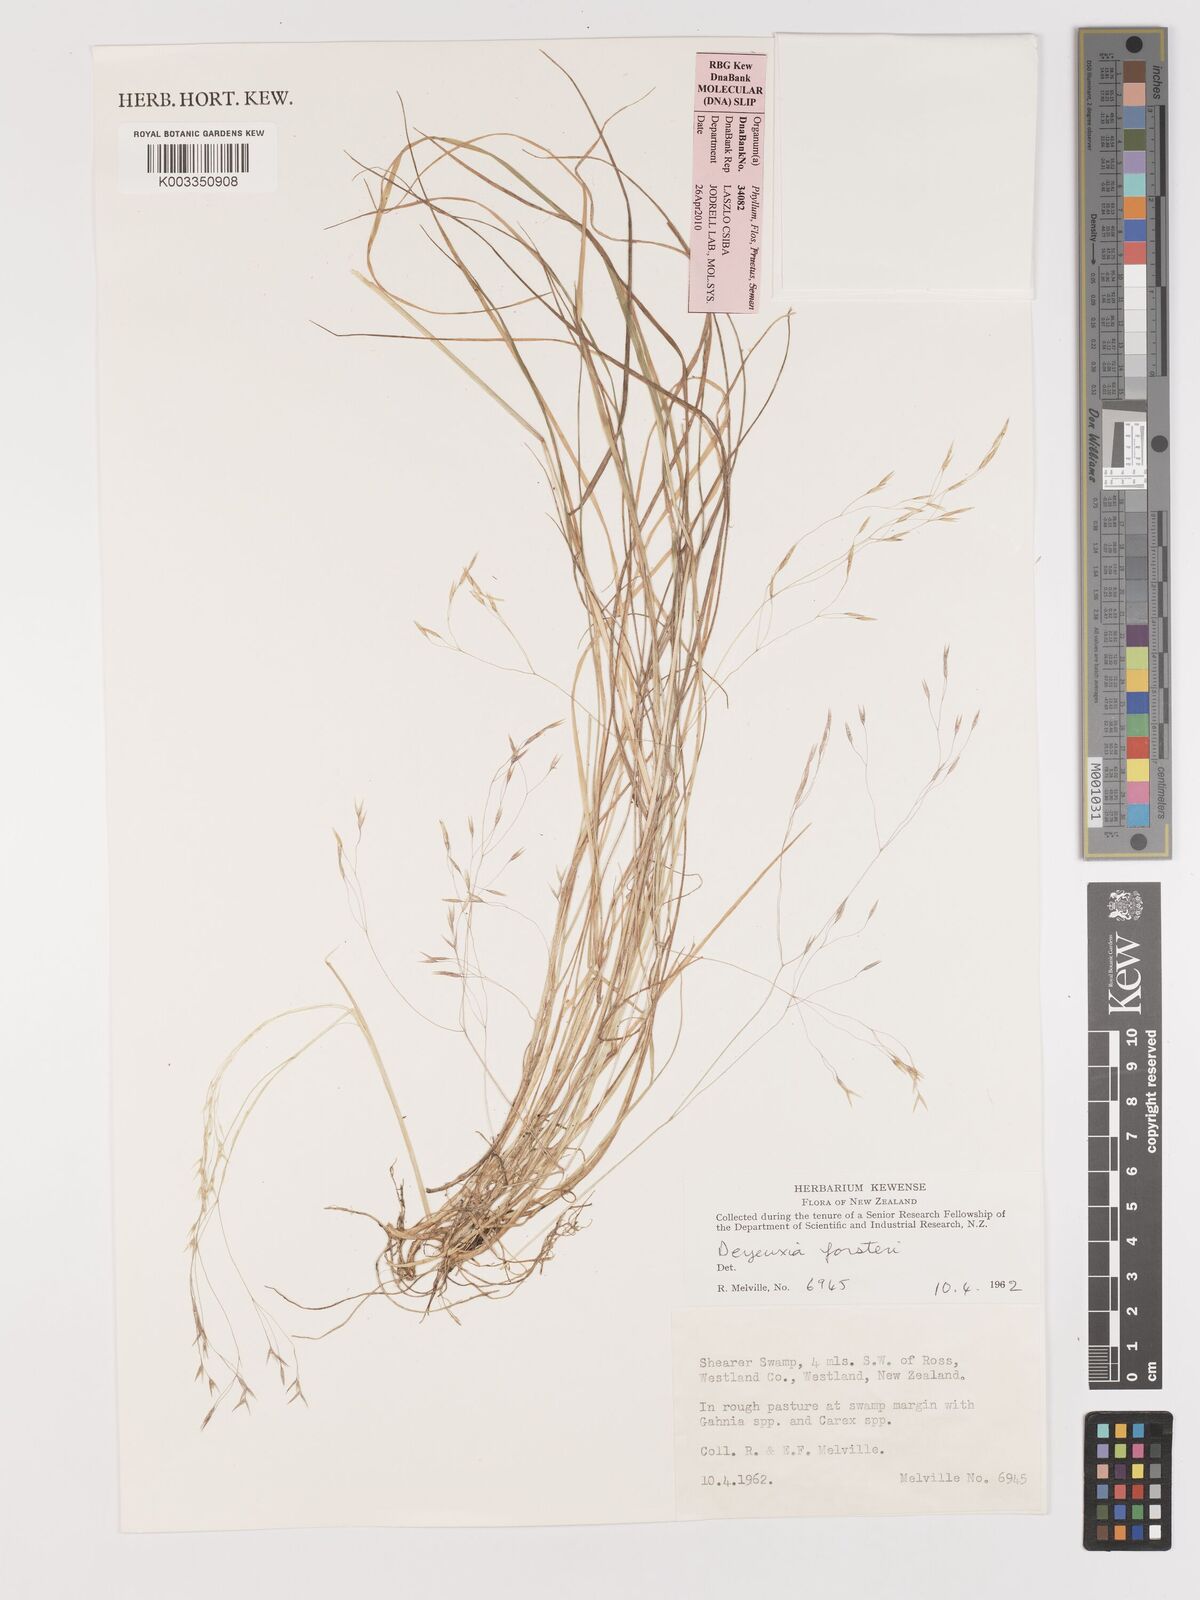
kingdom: Plantae
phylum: Tracheophyta
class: Liliopsida
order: Poales
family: Poaceae
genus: Lachnagrostis
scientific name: Lachnagrostis filiformis
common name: Bentgrass
